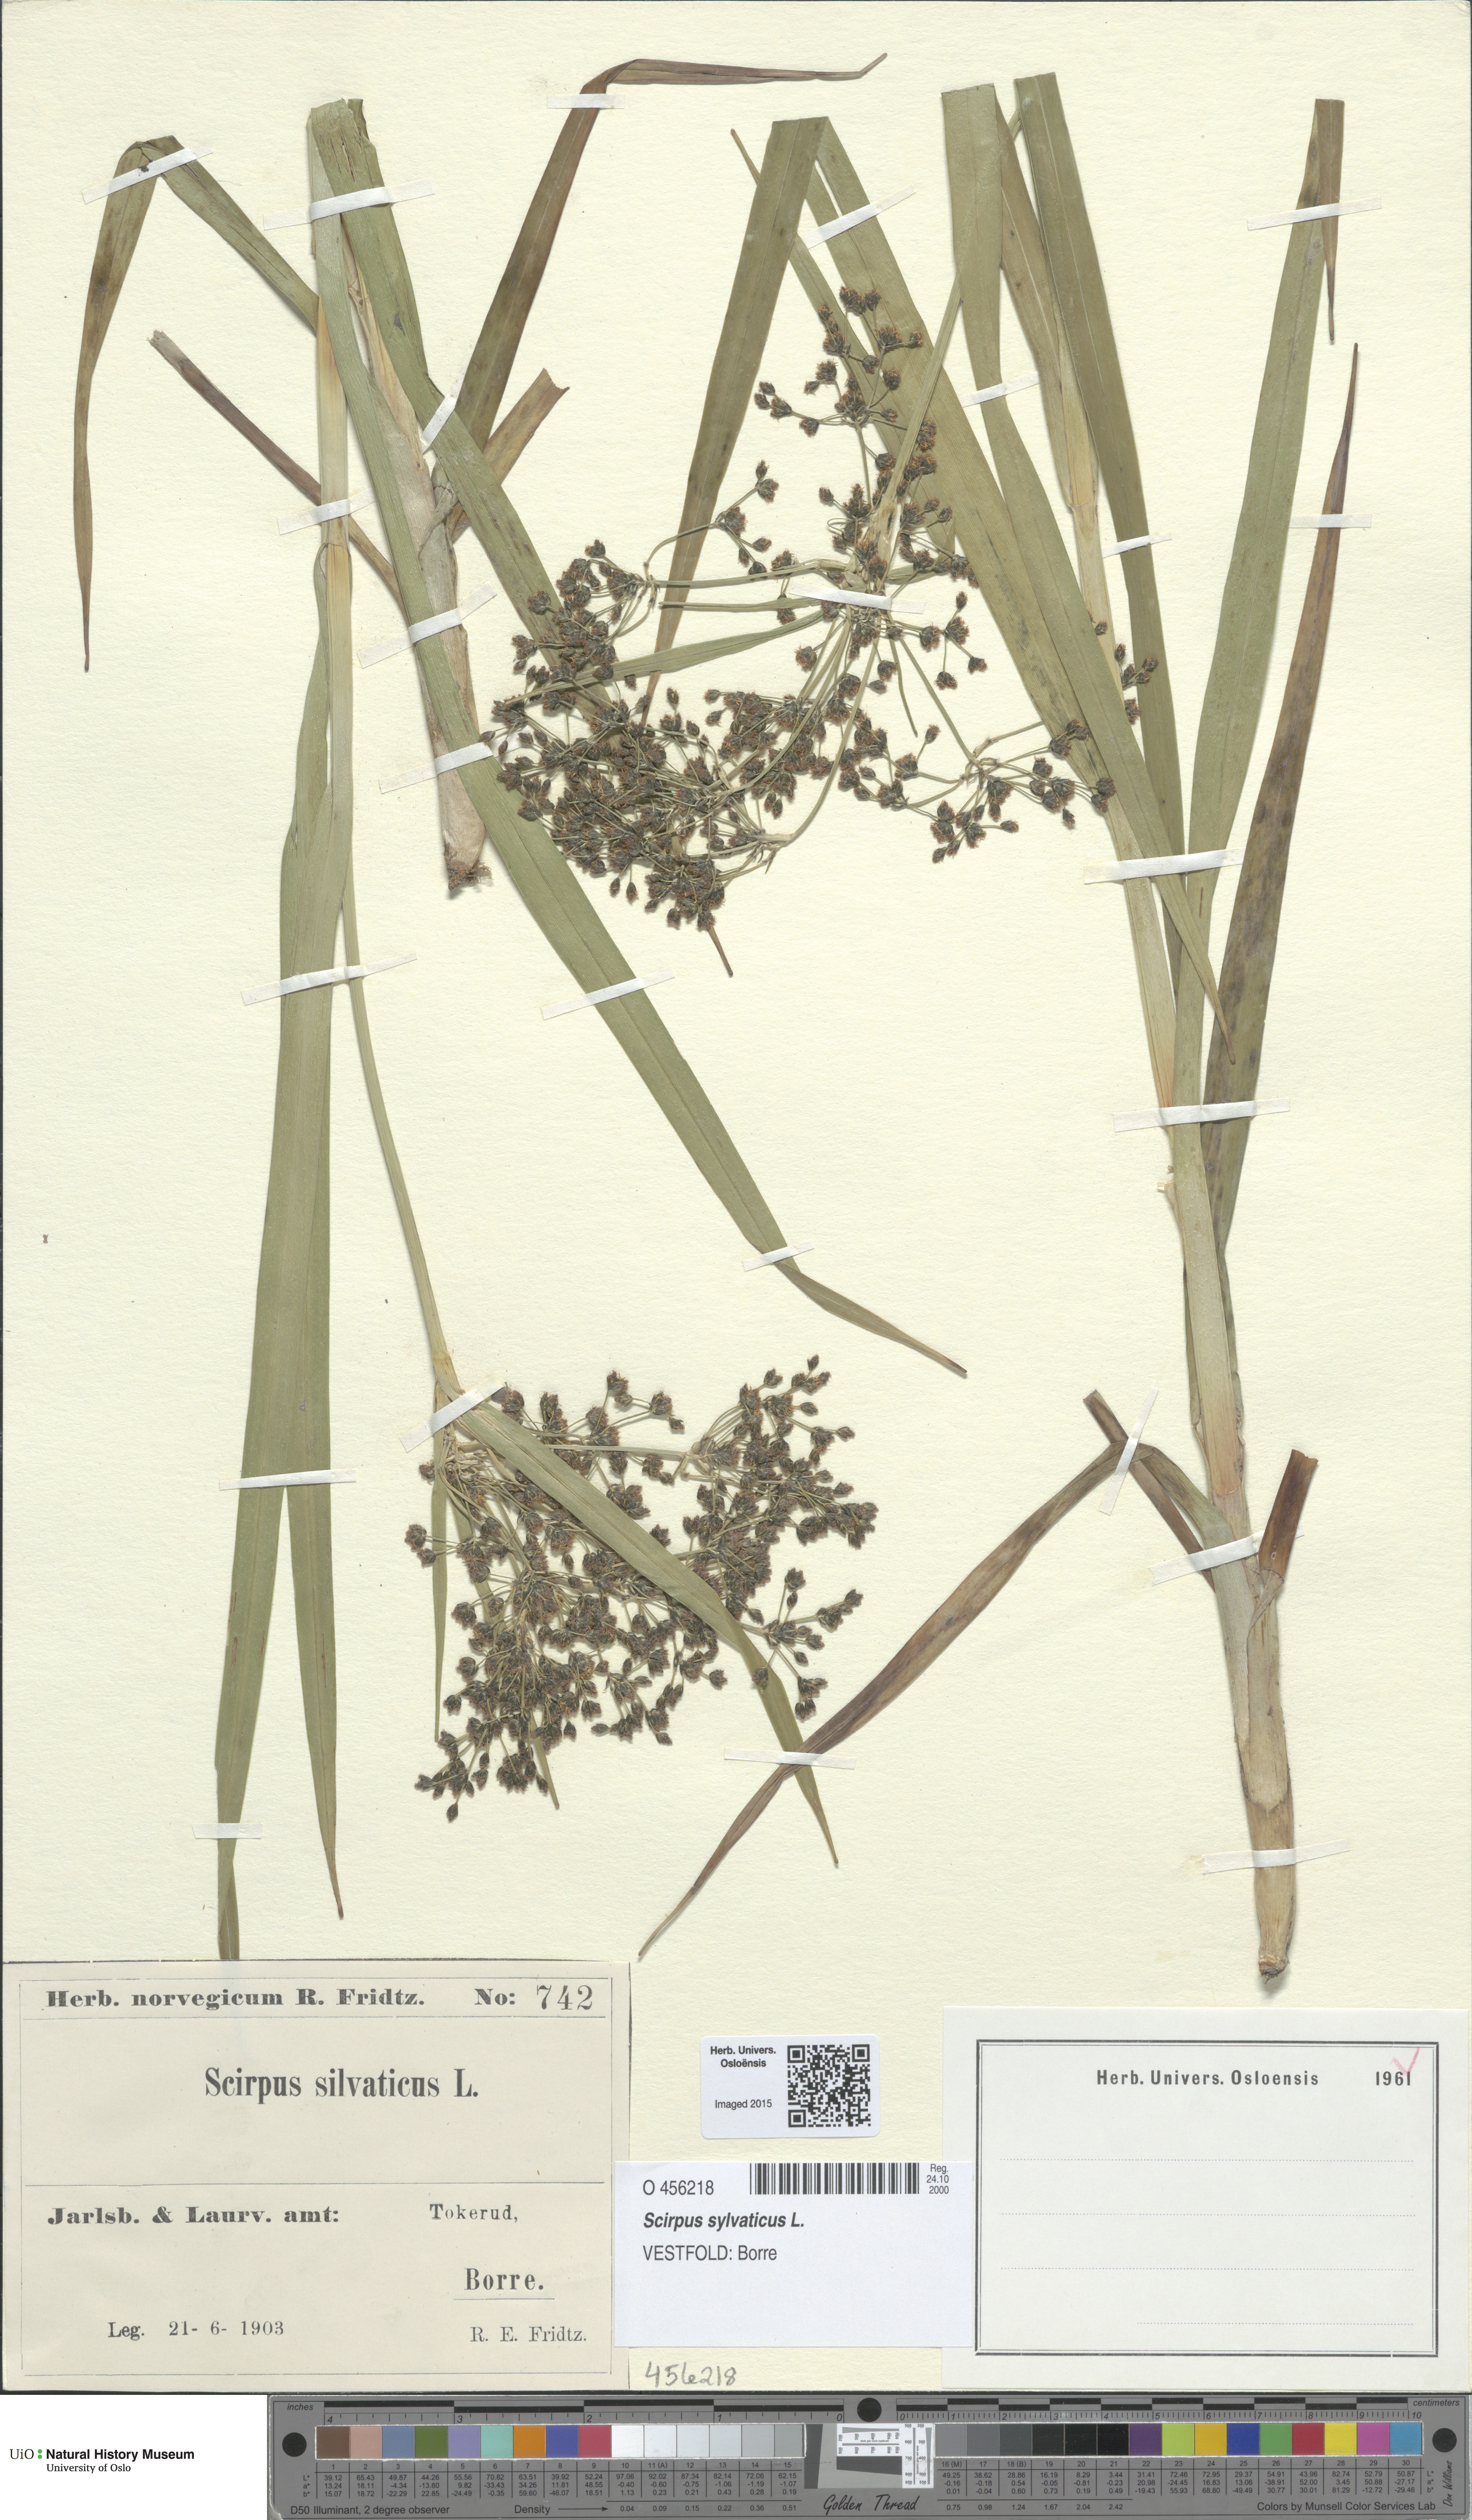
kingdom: Plantae
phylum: Tracheophyta
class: Liliopsida
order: Poales
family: Cyperaceae
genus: Scirpus
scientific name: Scirpus sylvaticus
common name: Wood club-rush
